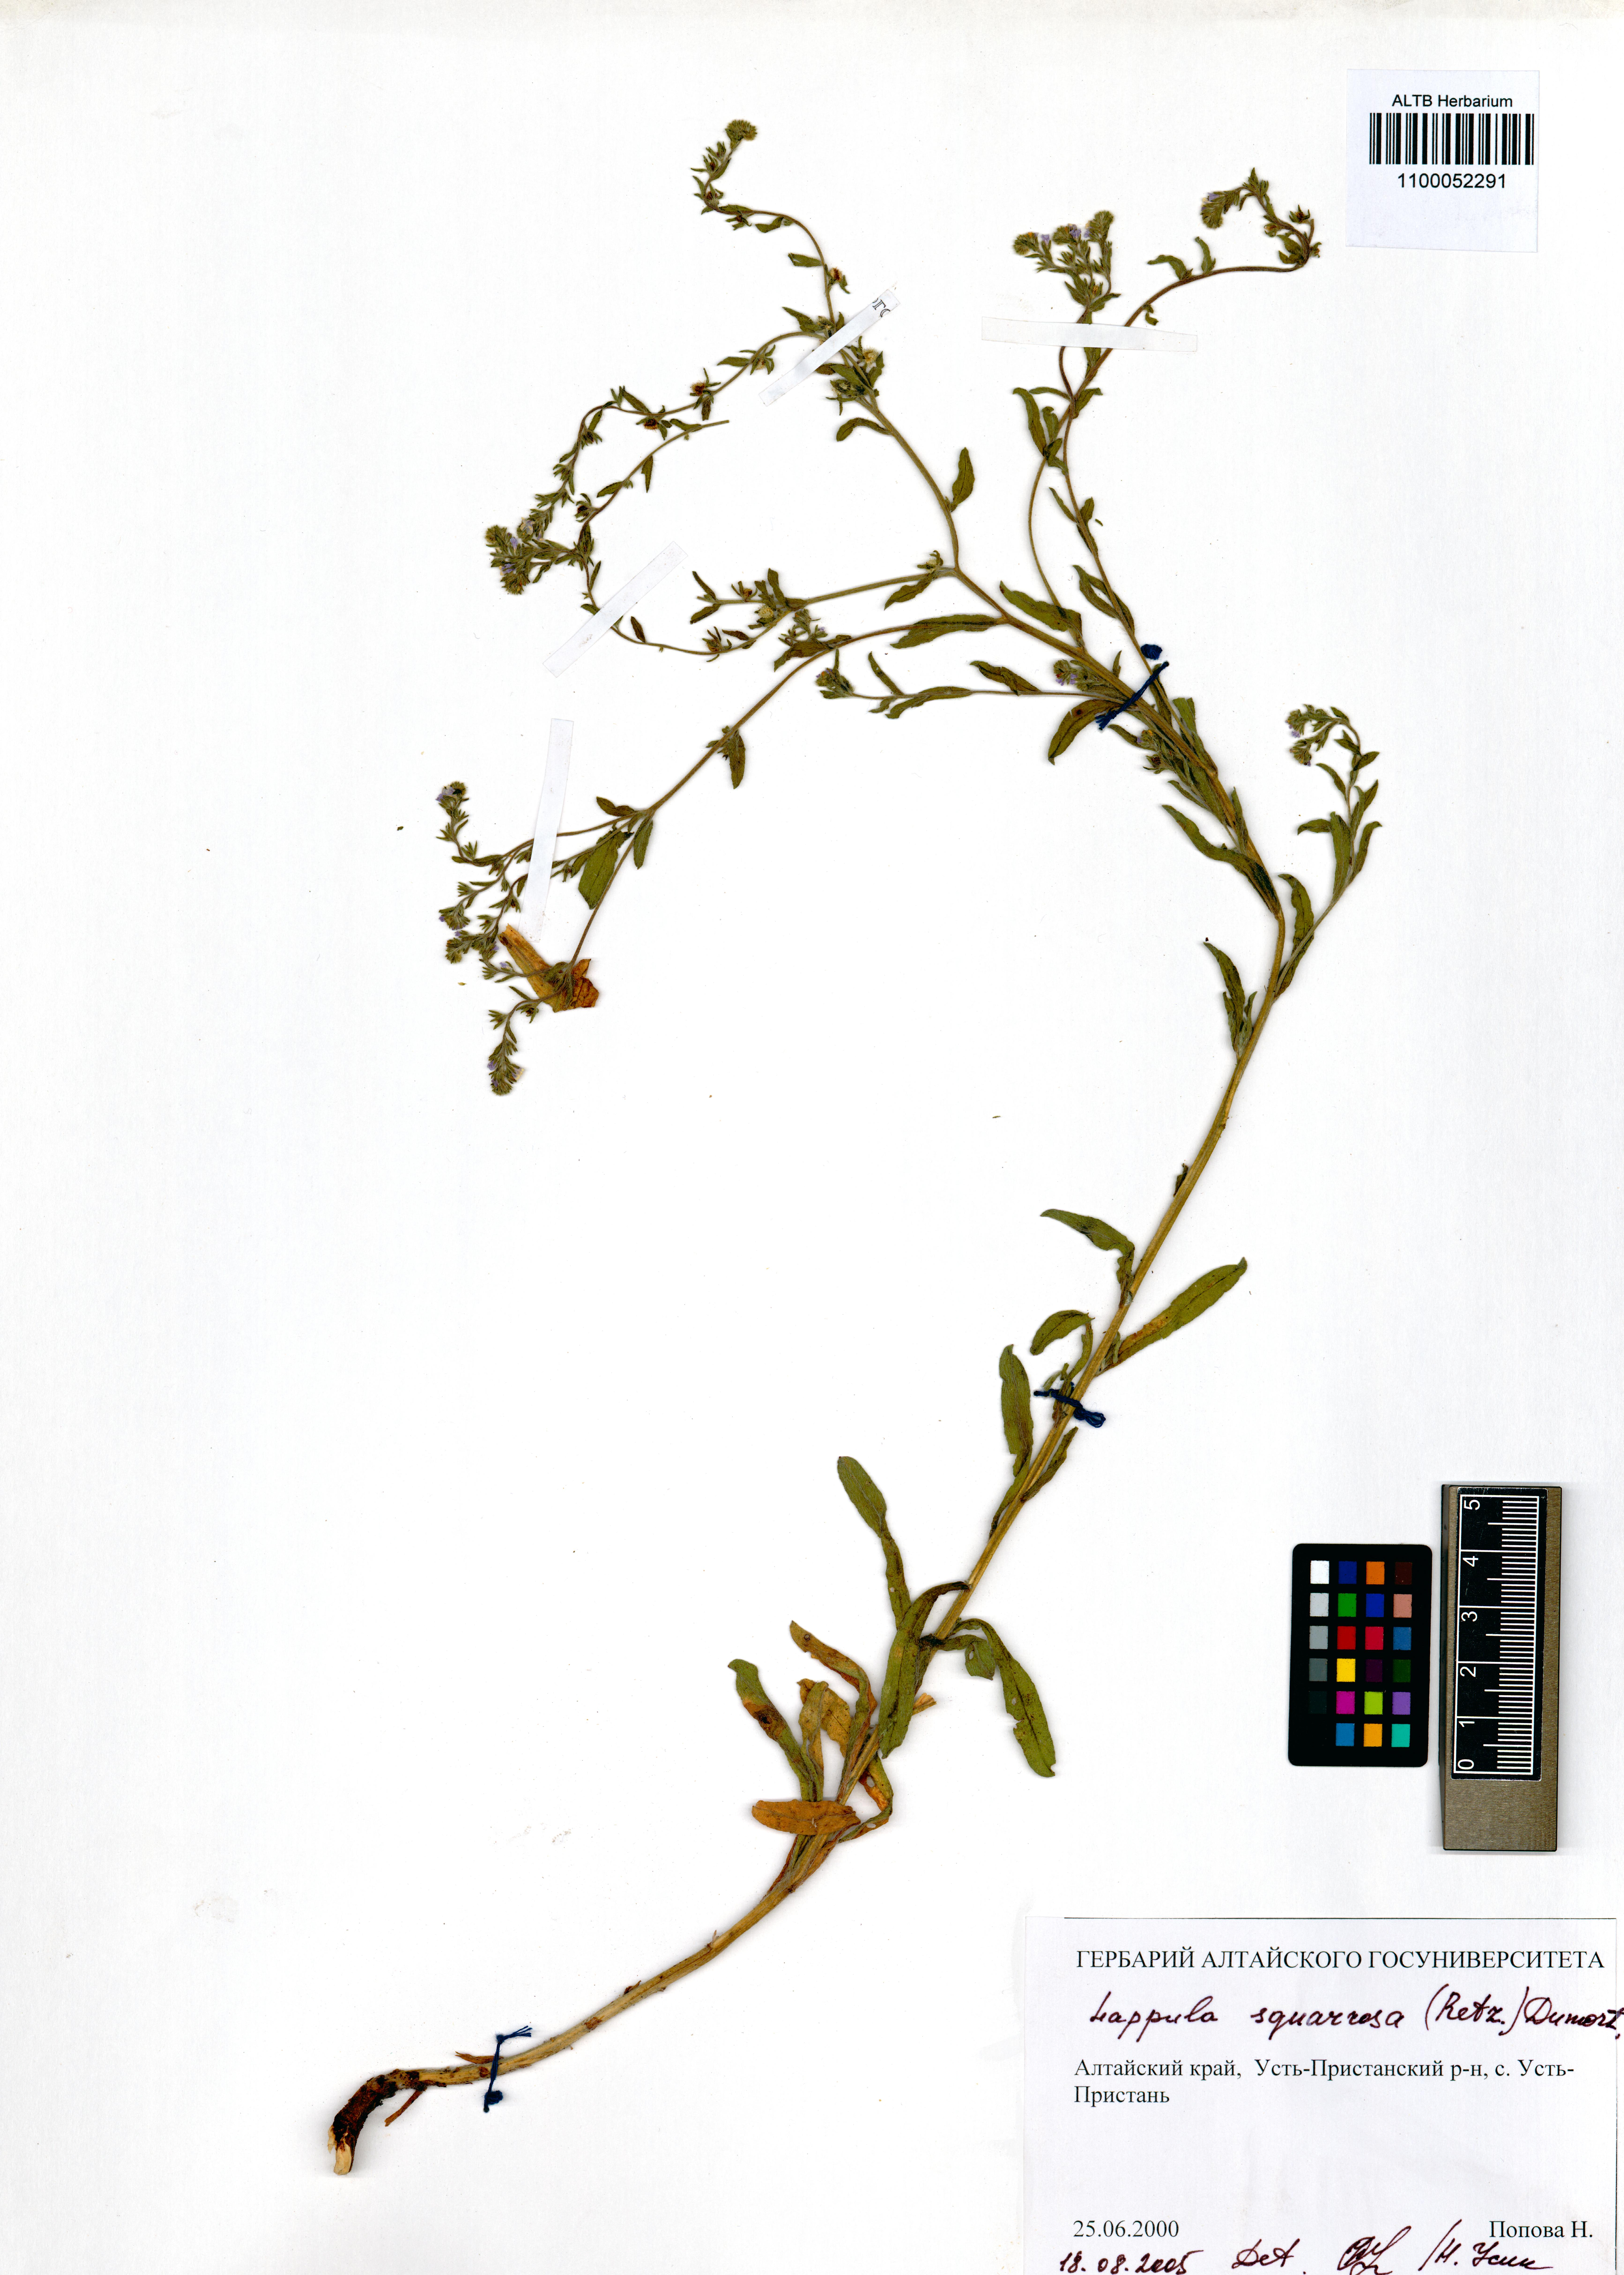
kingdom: Plantae
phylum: Tracheophyta
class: Magnoliopsida
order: Boraginales
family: Boraginaceae
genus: Lappula
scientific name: Lappula squarrosa
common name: European stickseed
